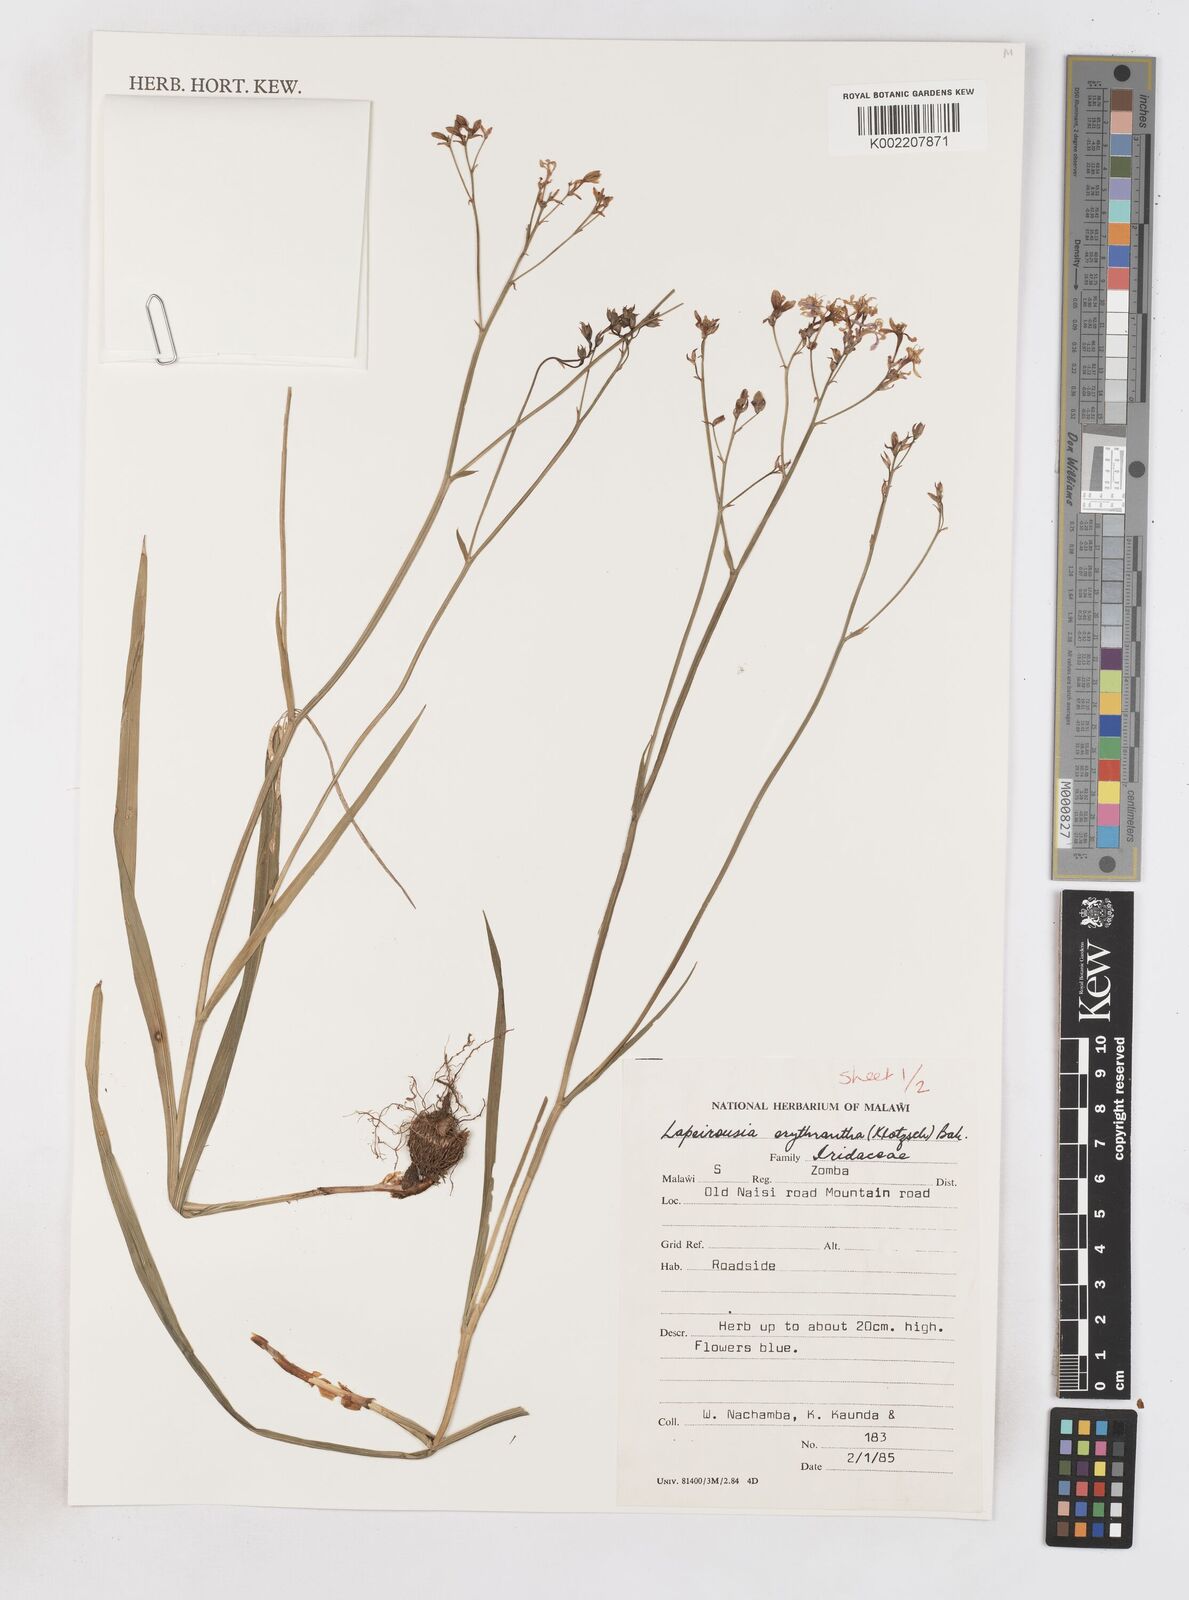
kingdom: Plantae
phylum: Tracheophyta
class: Liliopsida
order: Asparagales
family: Iridaceae
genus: Afrosolen
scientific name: Afrosolen erythranthus
